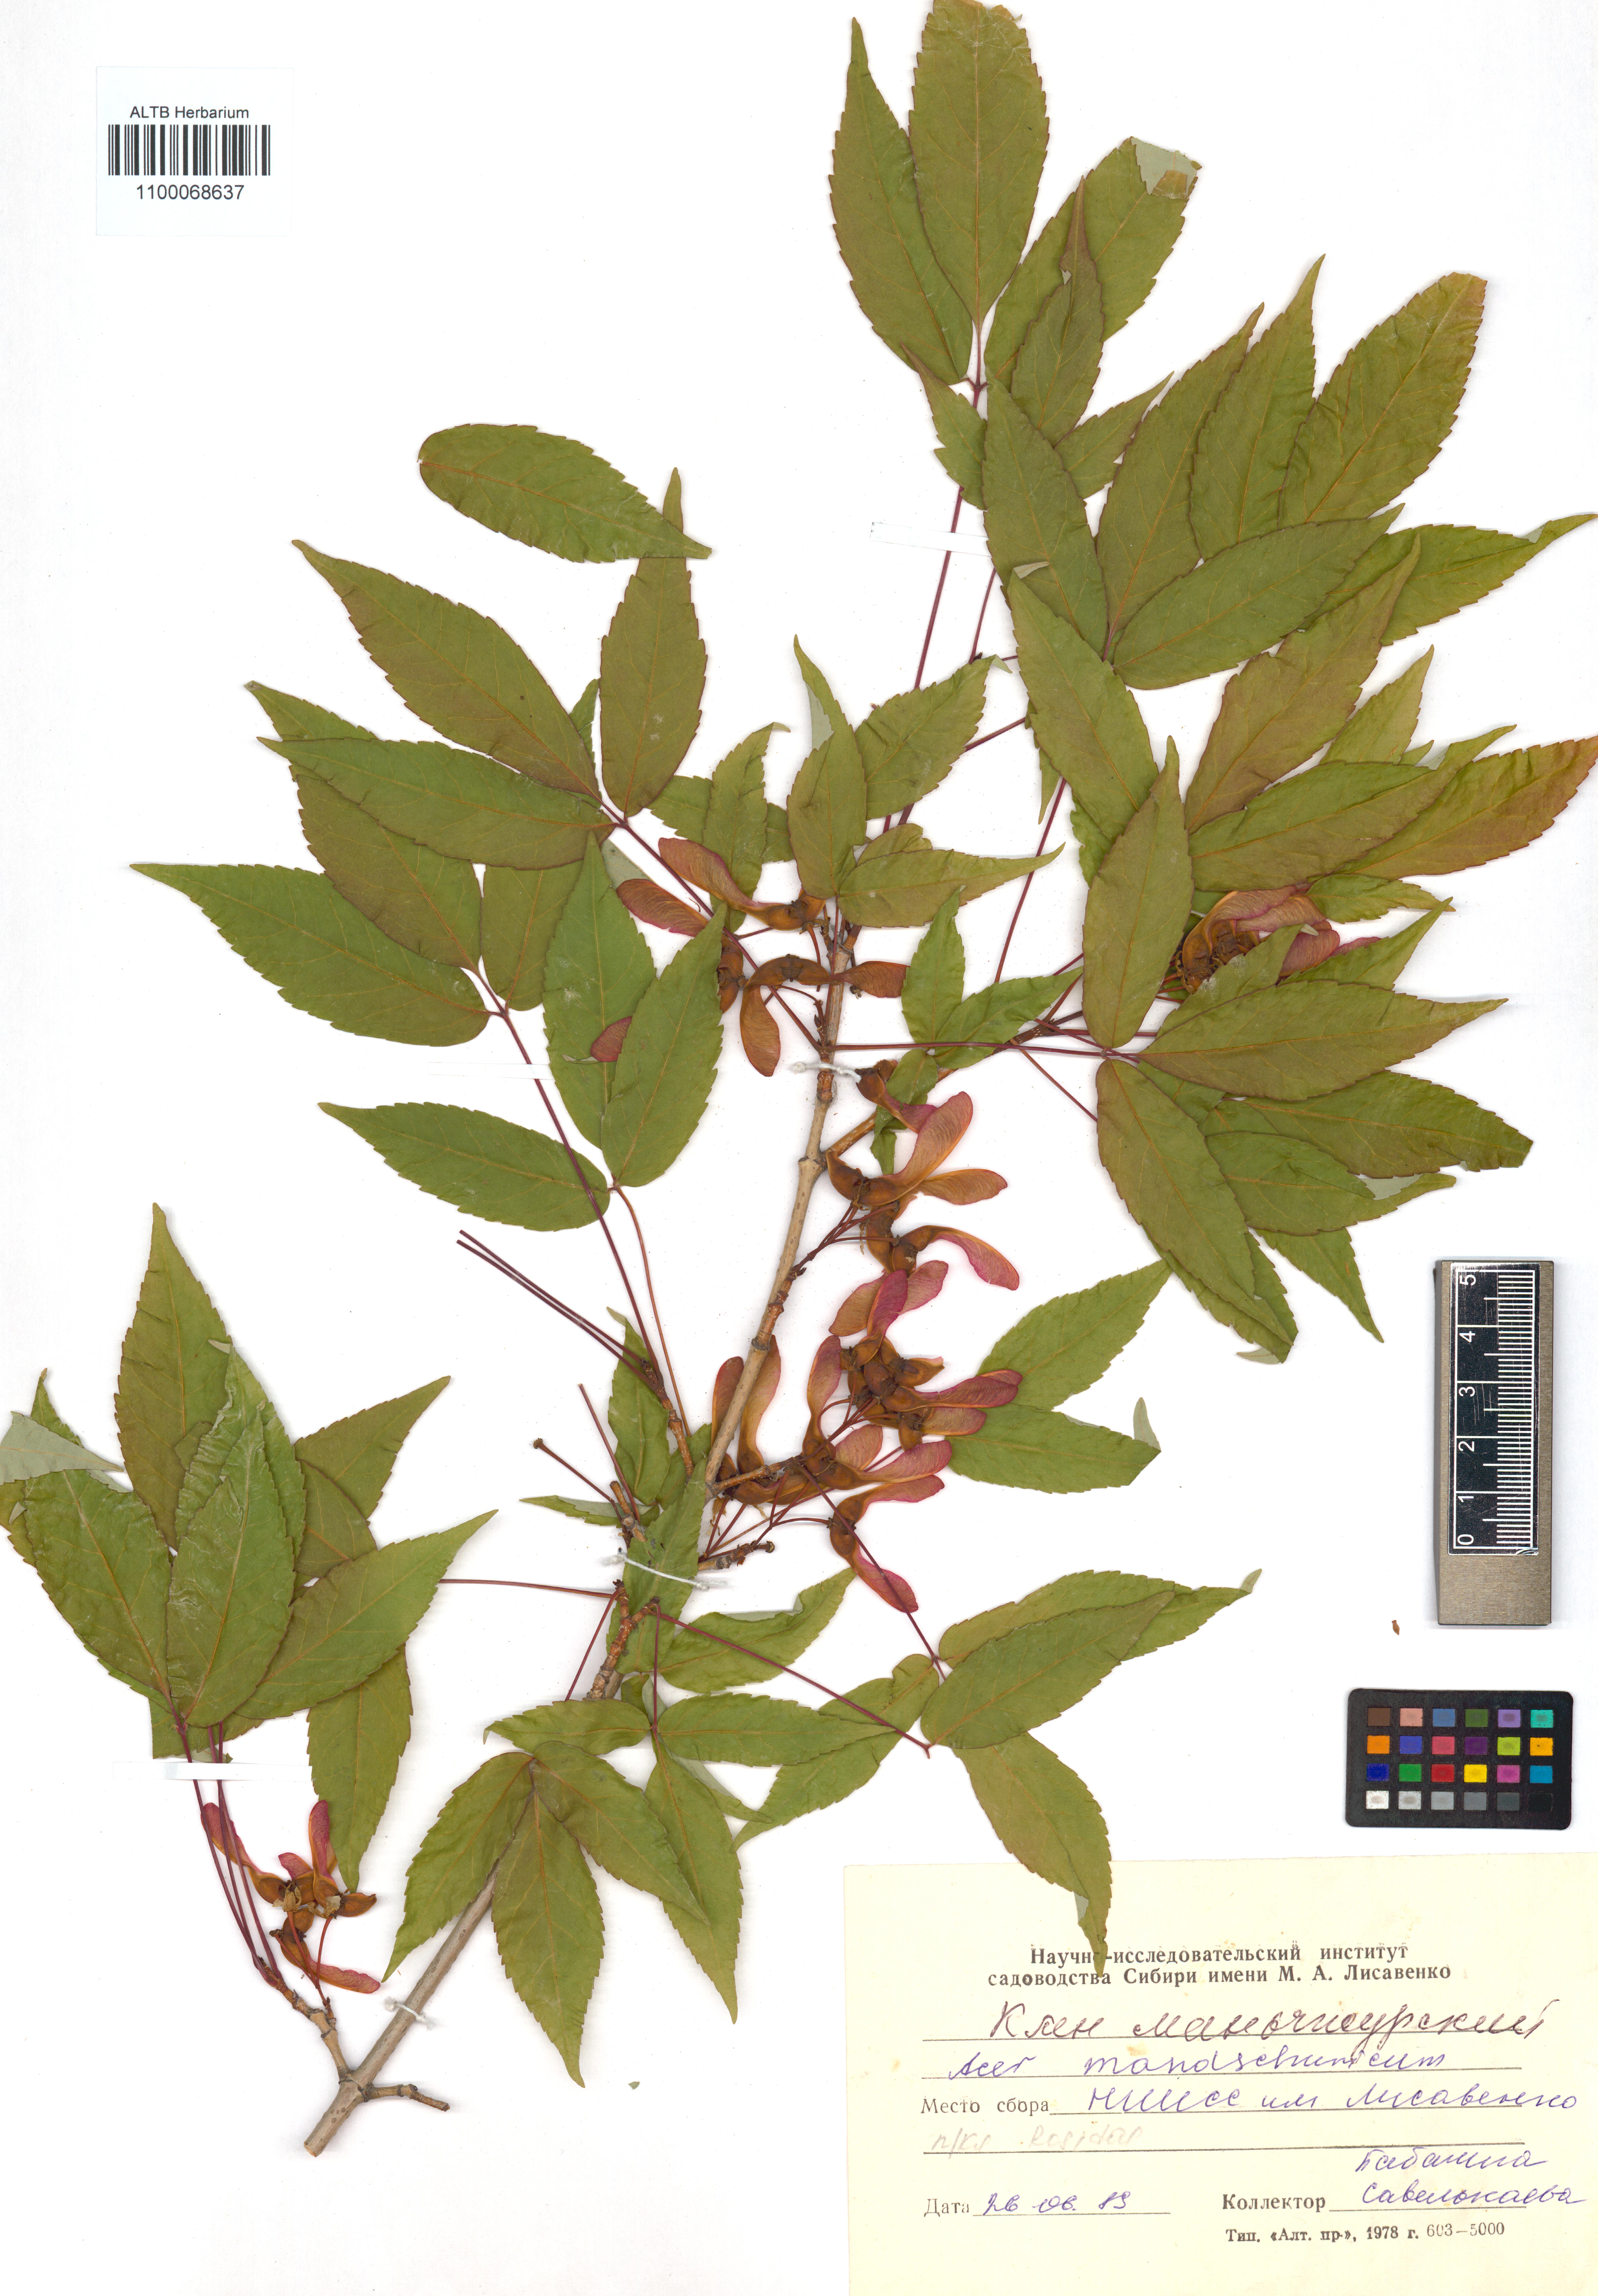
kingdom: Plantae
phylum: Tracheophyta
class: Magnoliopsida
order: Sapindales
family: Sapindaceae
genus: Acer
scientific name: Acer mandshuricum
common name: Manchurian maple
